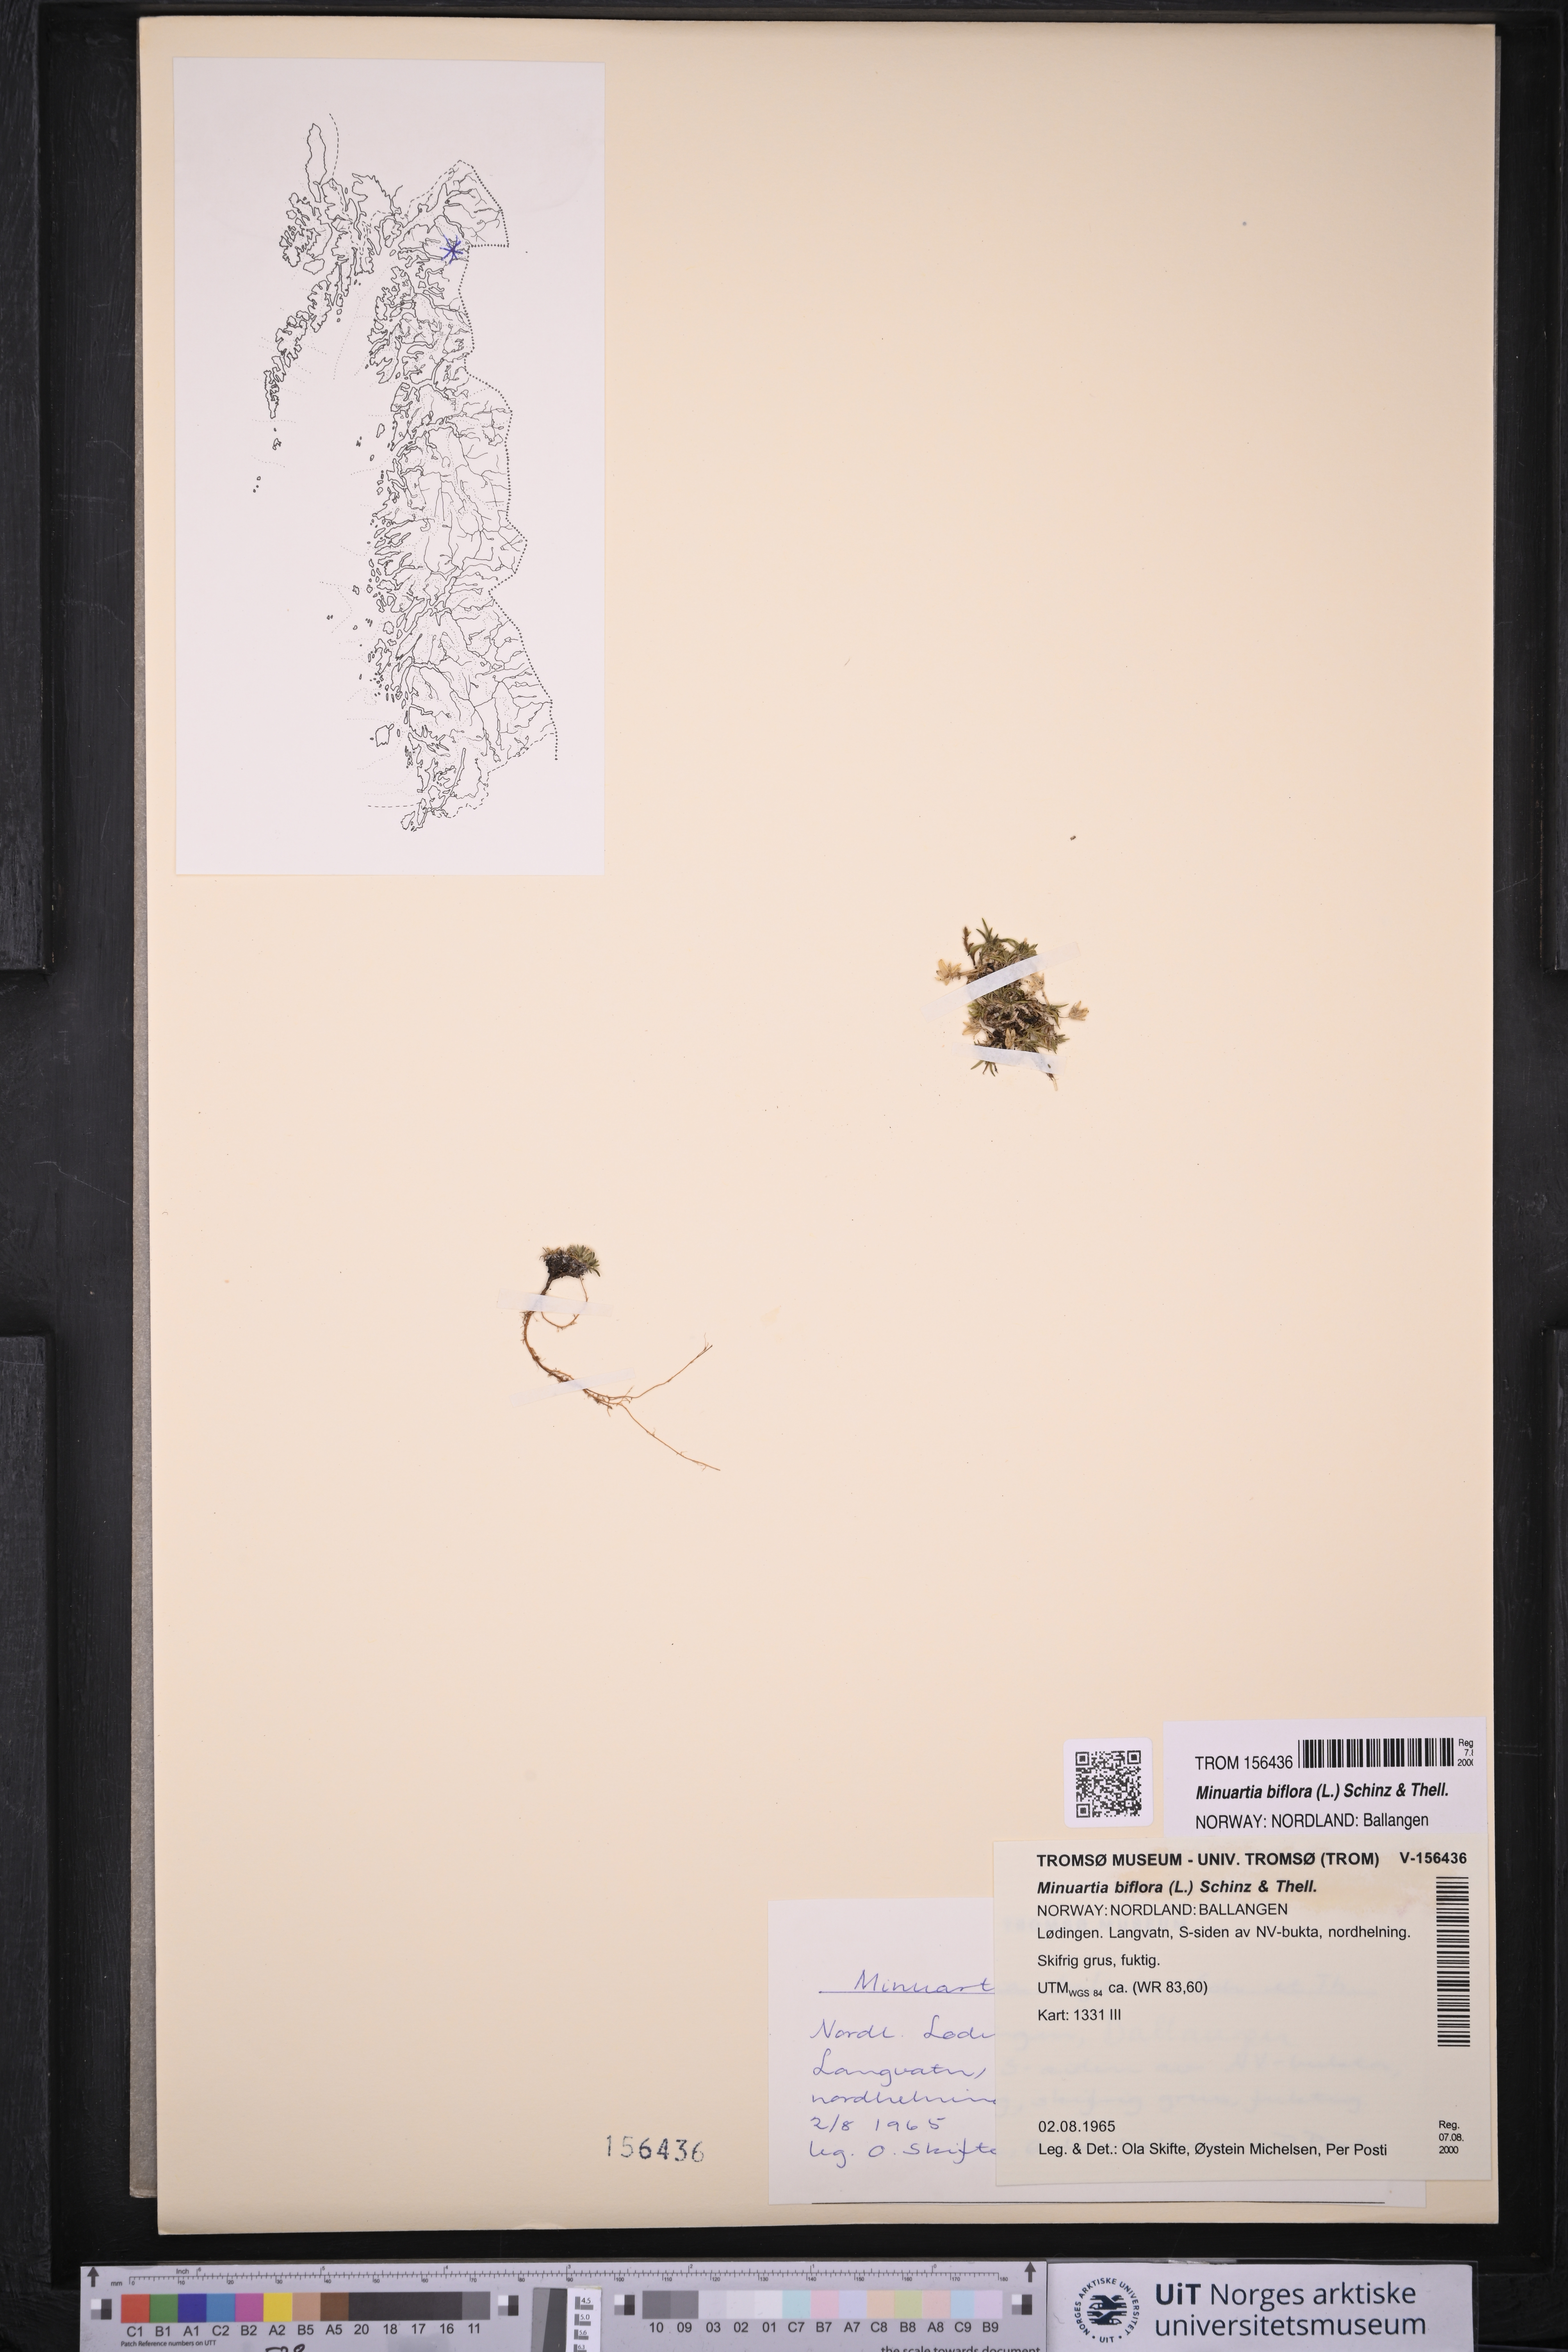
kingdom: Plantae
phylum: Tracheophyta
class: Magnoliopsida
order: Caryophyllales
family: Caryophyllaceae
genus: Cherleria
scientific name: Cherleria biflora
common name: Mountain sandwort
